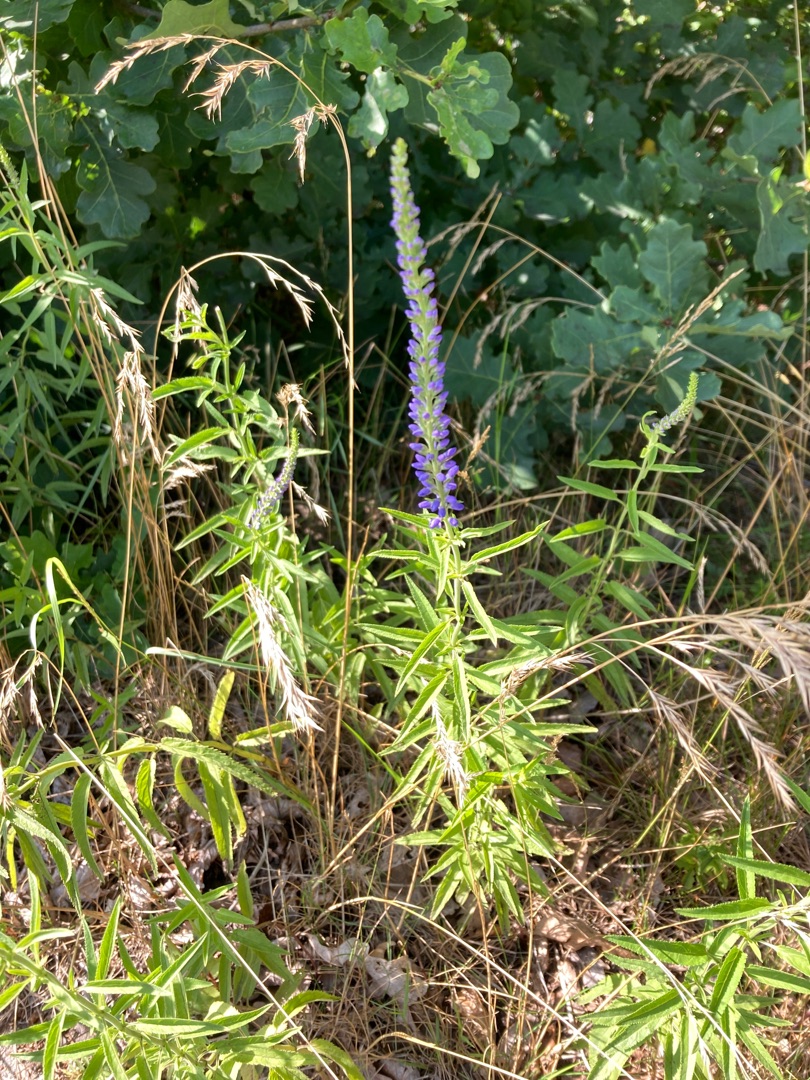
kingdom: Plantae
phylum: Tracheophyta
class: Magnoliopsida
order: Lamiales
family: Plantaginaceae
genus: Veronica
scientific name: Veronica longifolia
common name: Langbladet ærenpris
